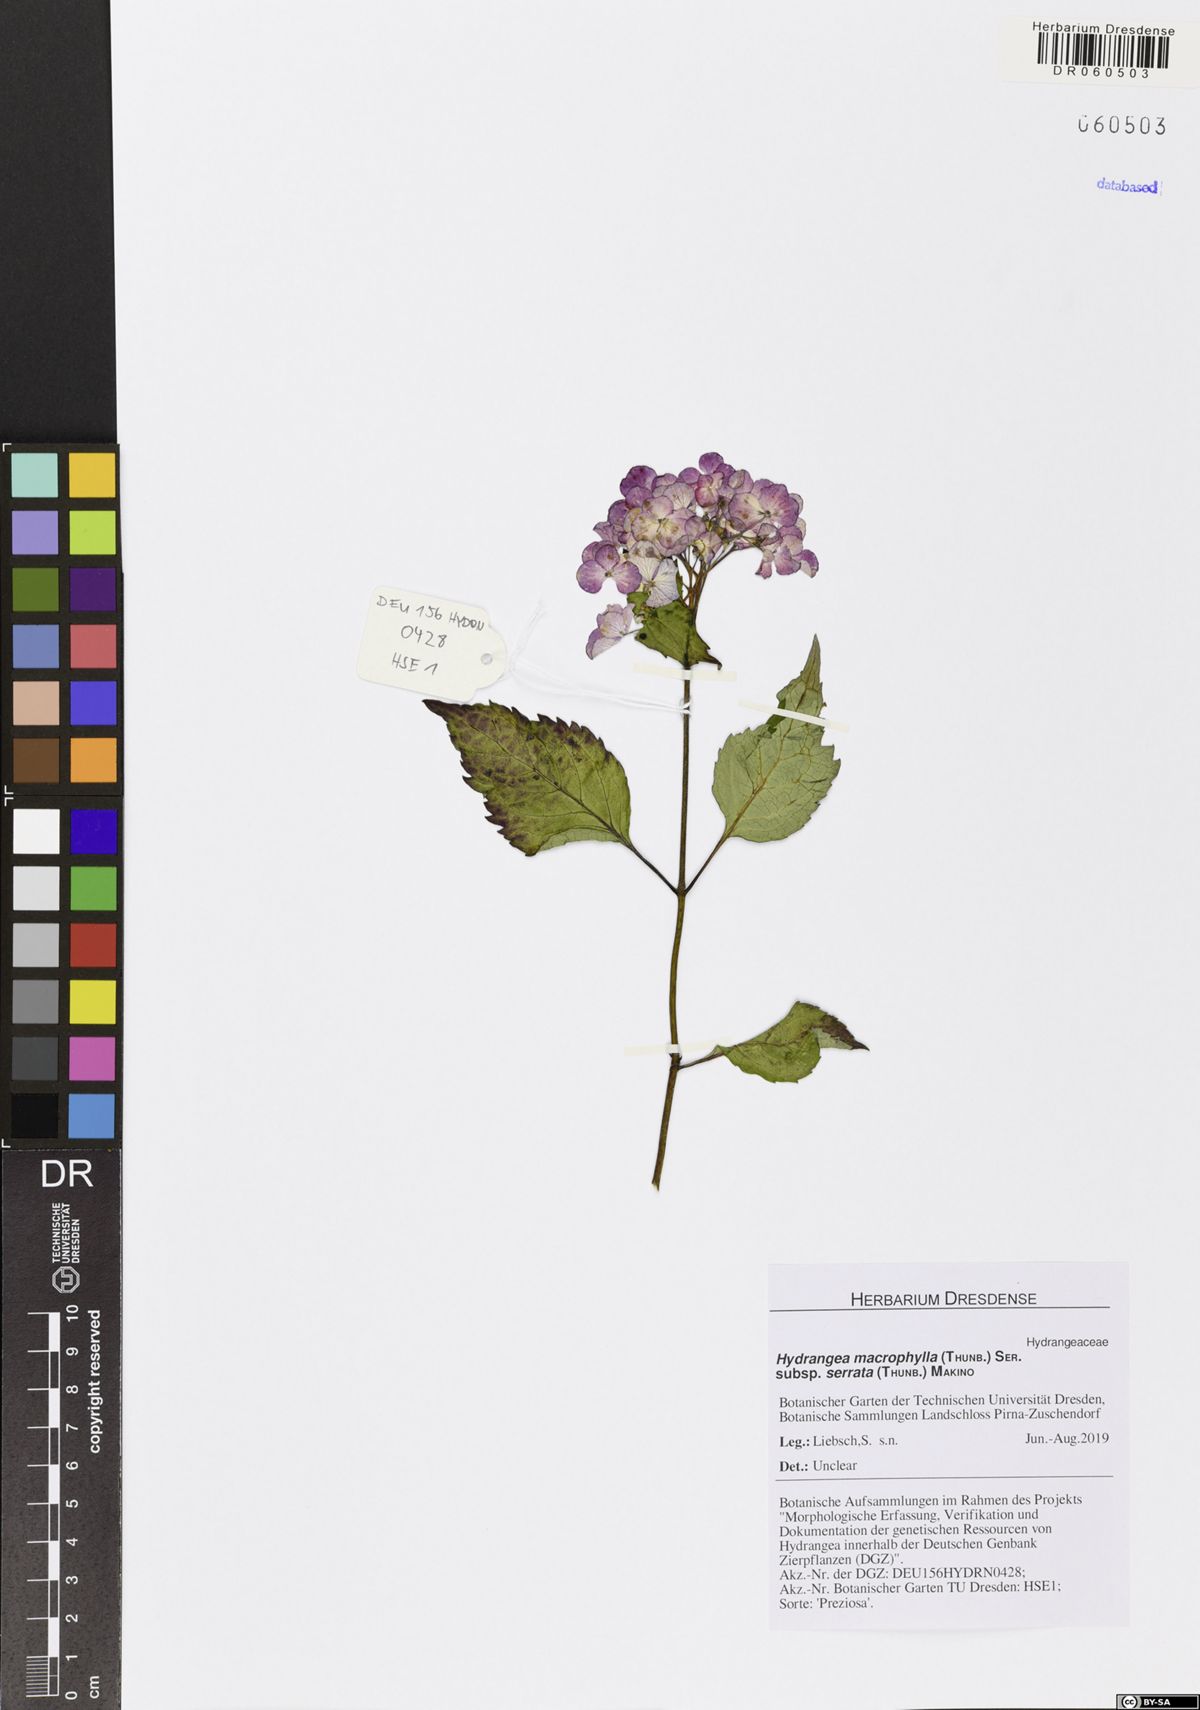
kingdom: Plantae
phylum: Tracheophyta
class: Magnoliopsida
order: Cornales
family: Hydrangeaceae
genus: Hydrangea
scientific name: Hydrangea serrata
